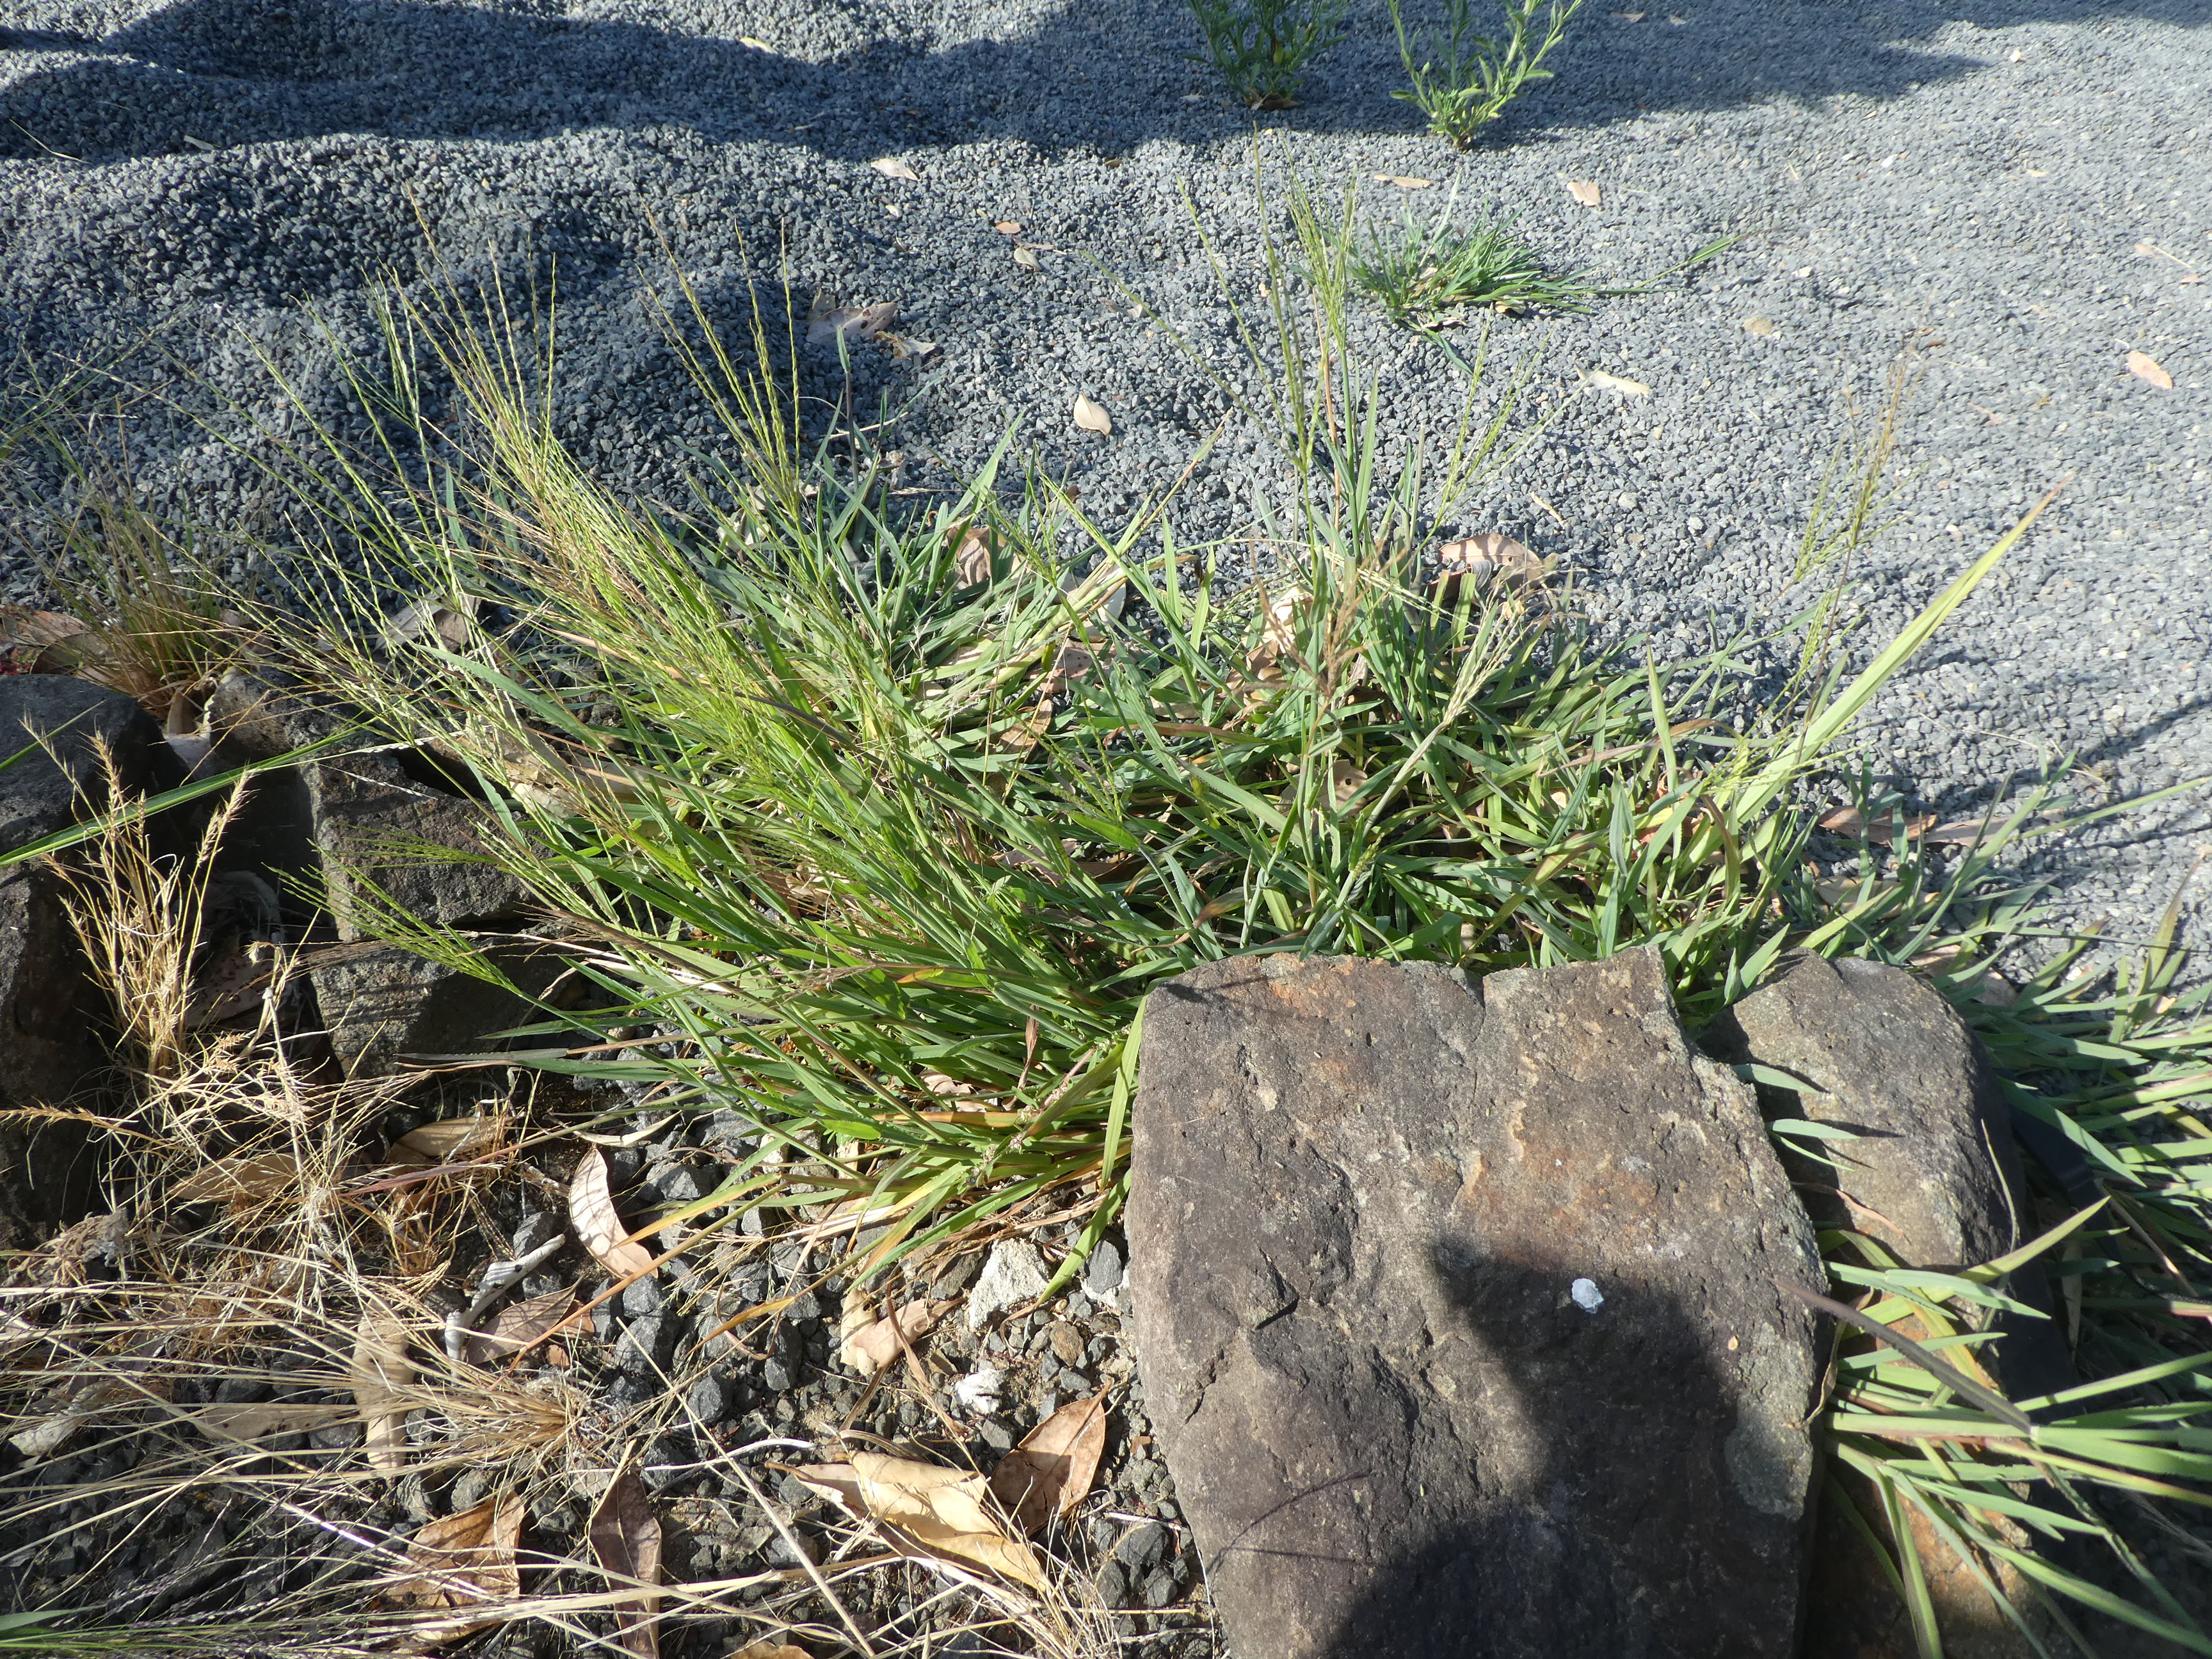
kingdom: Plantae
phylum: Tracheophyta
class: Liliopsida
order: Poales
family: Poaceae
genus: Digitaria
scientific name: Digitaria aequiglumis
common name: Argentinian crabgrass
